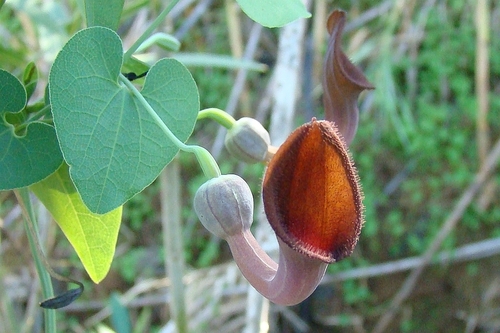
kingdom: Plantae
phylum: Tracheophyta
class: Magnoliopsida
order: Piperales
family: Aristolochiaceae
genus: Aristolochia
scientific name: Aristolochia baetica
